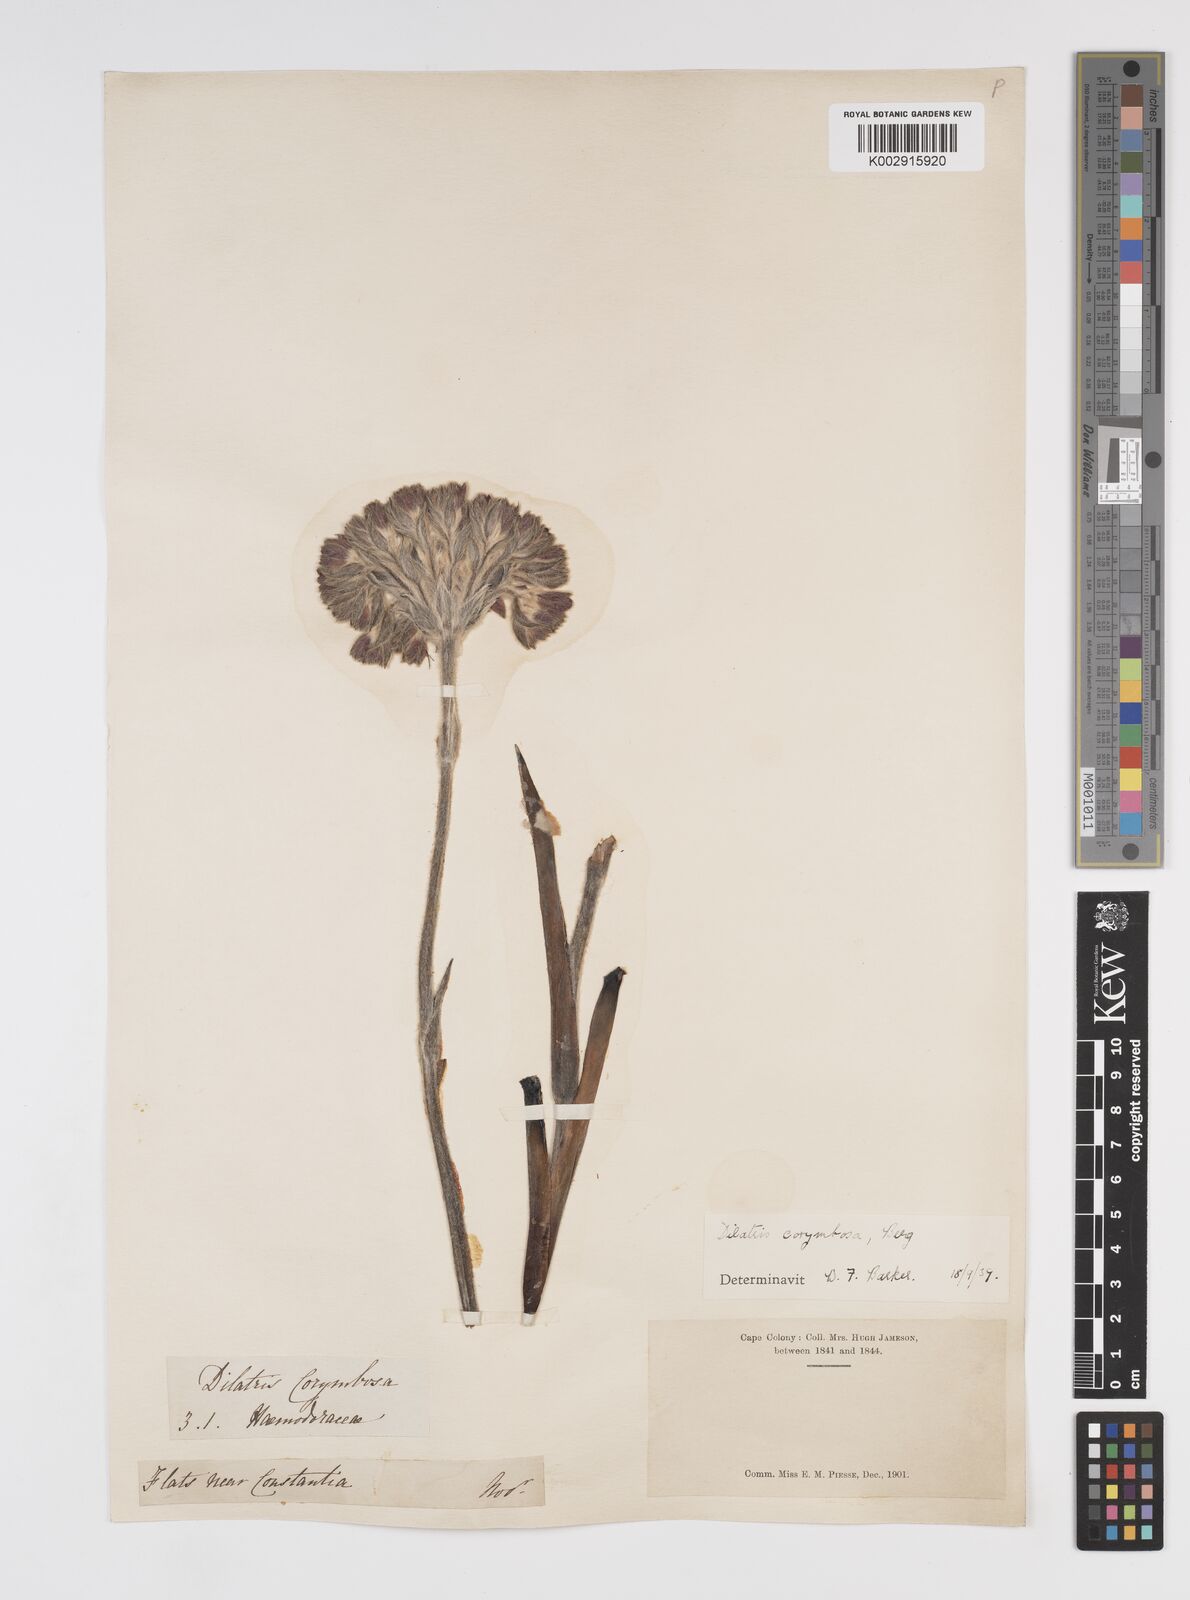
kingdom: Plantae
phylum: Tracheophyta
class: Liliopsida
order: Commelinales
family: Haemodoraceae
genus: Dilatris
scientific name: Dilatris corymbosa
